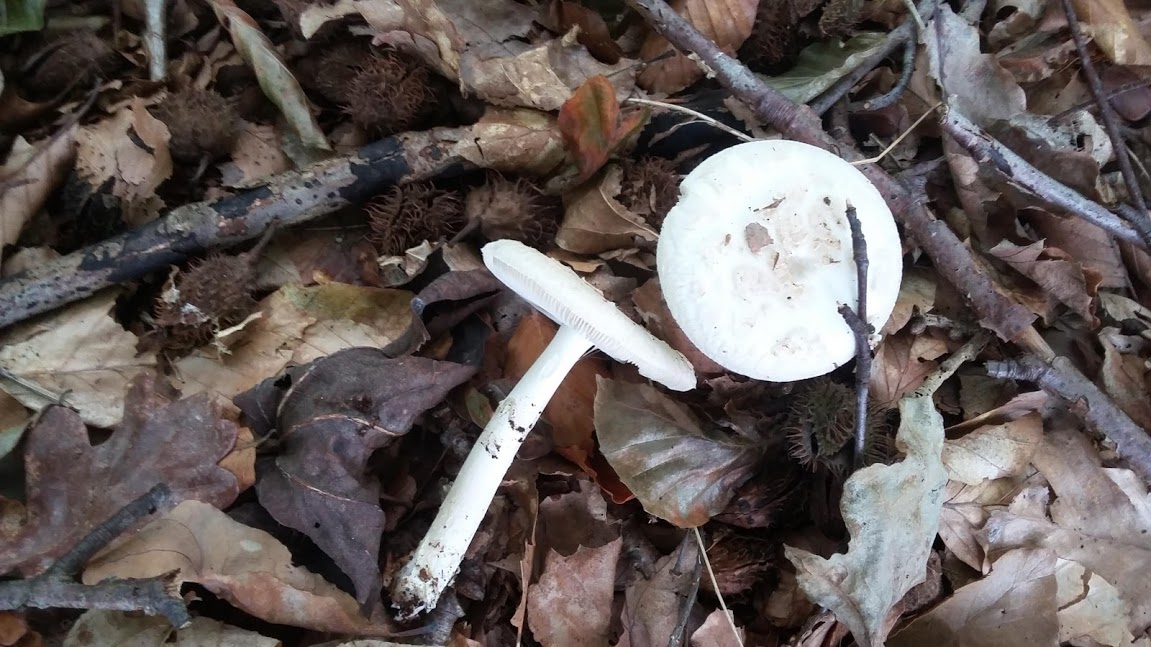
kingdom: Fungi
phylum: Basidiomycota
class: Agaricomycetes
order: Agaricales
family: Amanitaceae
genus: Amanita
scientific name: Amanita citrina
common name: False death-cap
